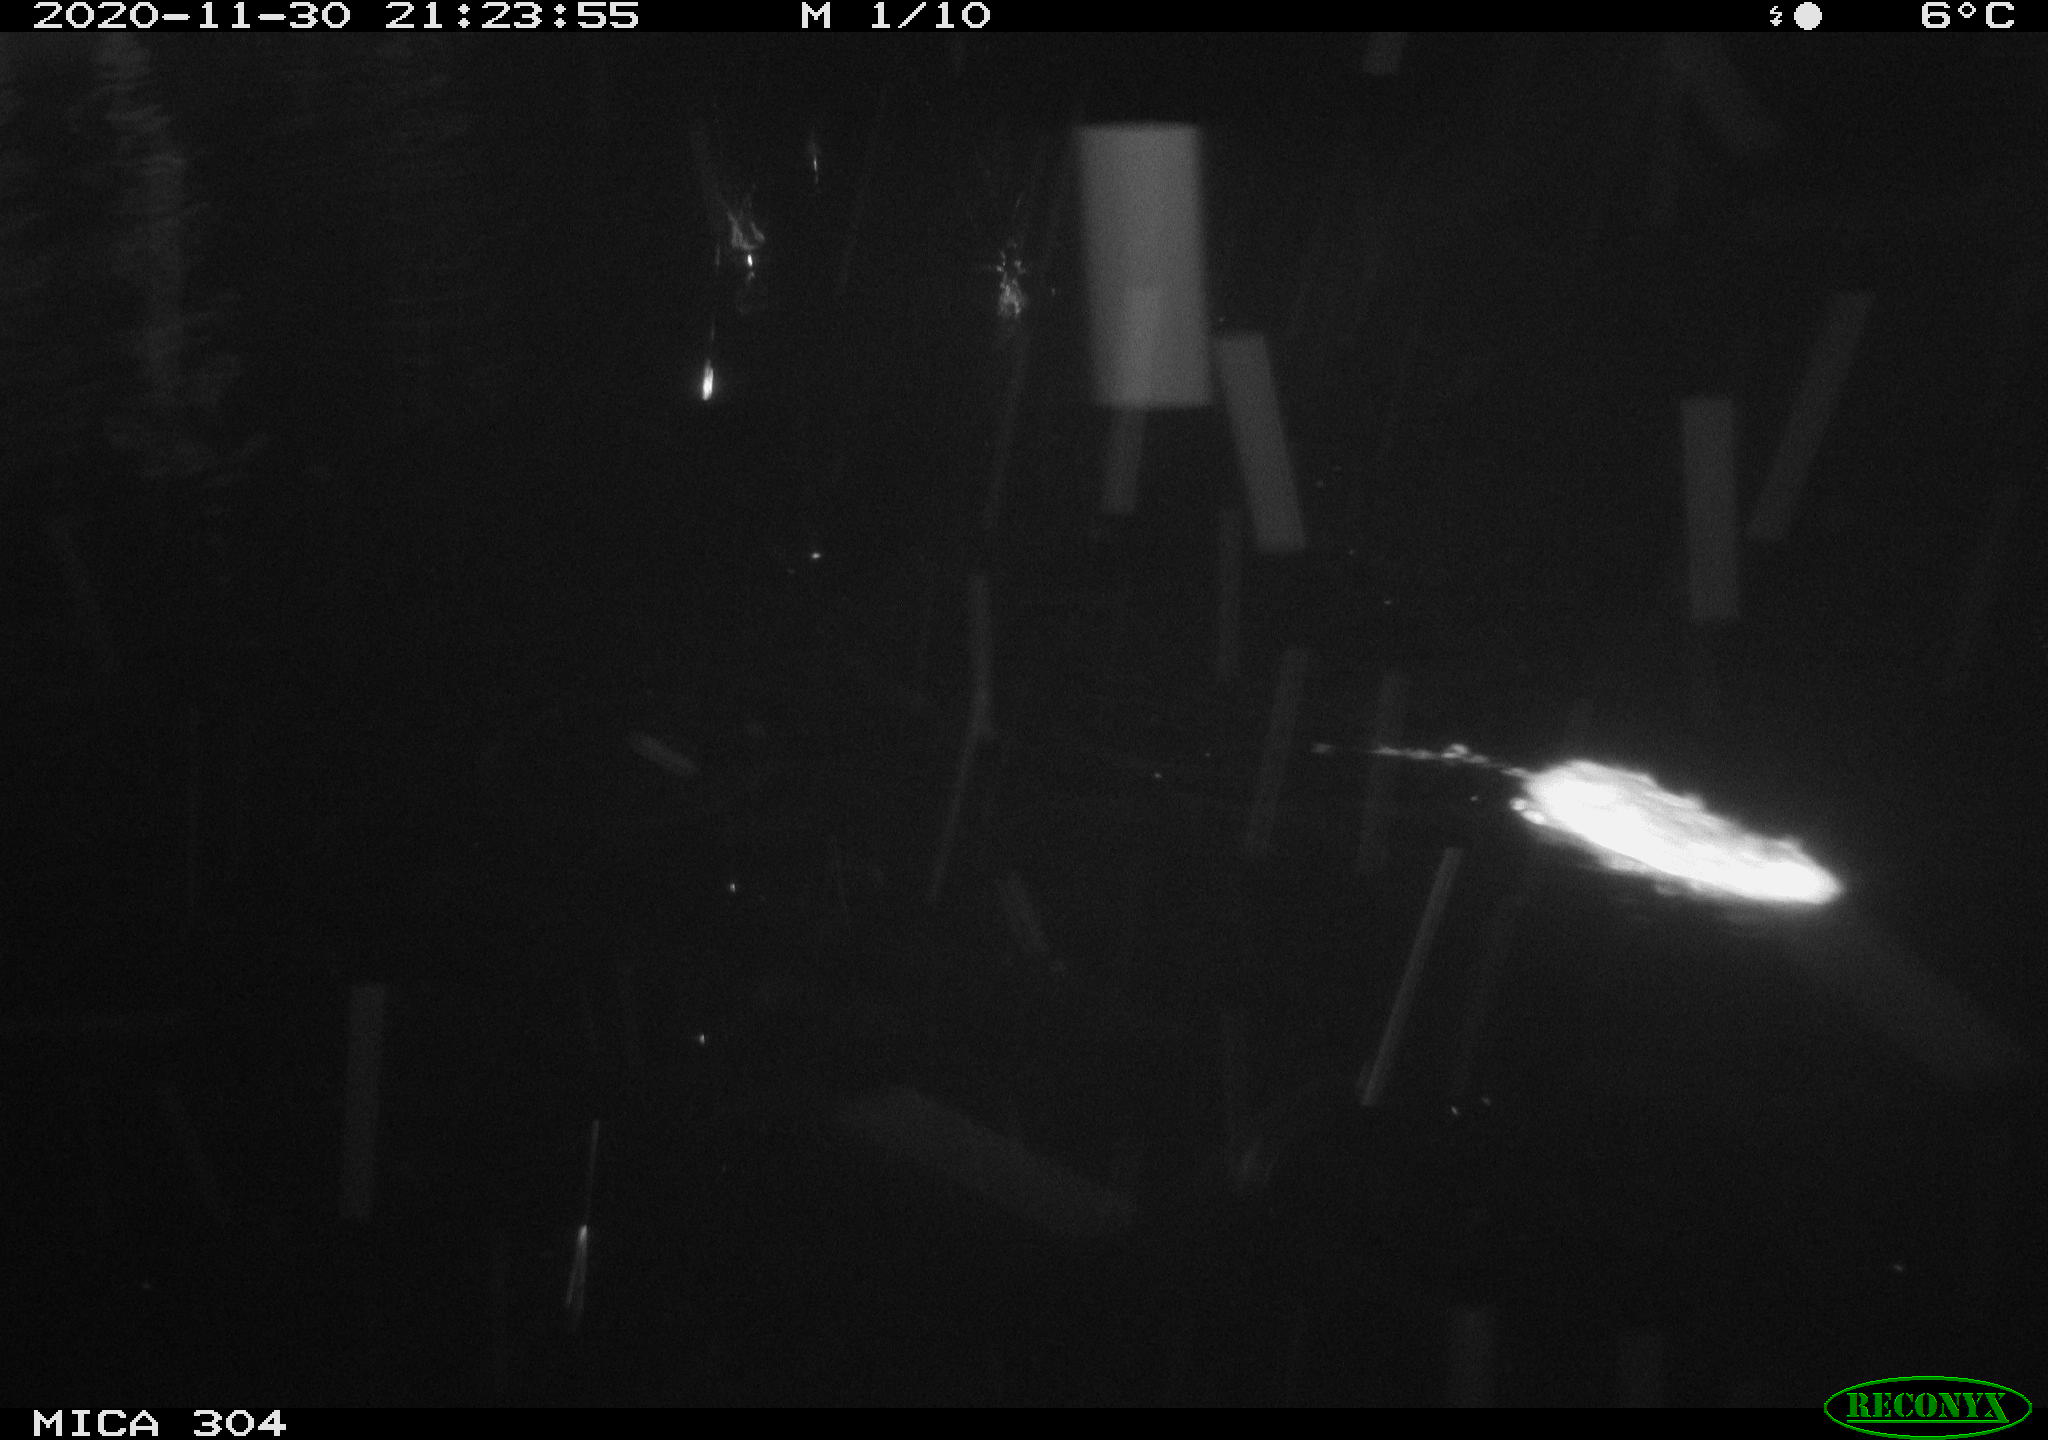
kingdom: Animalia
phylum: Chordata
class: Mammalia
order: Rodentia
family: Muridae
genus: Rattus
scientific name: Rattus norvegicus
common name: Brown rat
